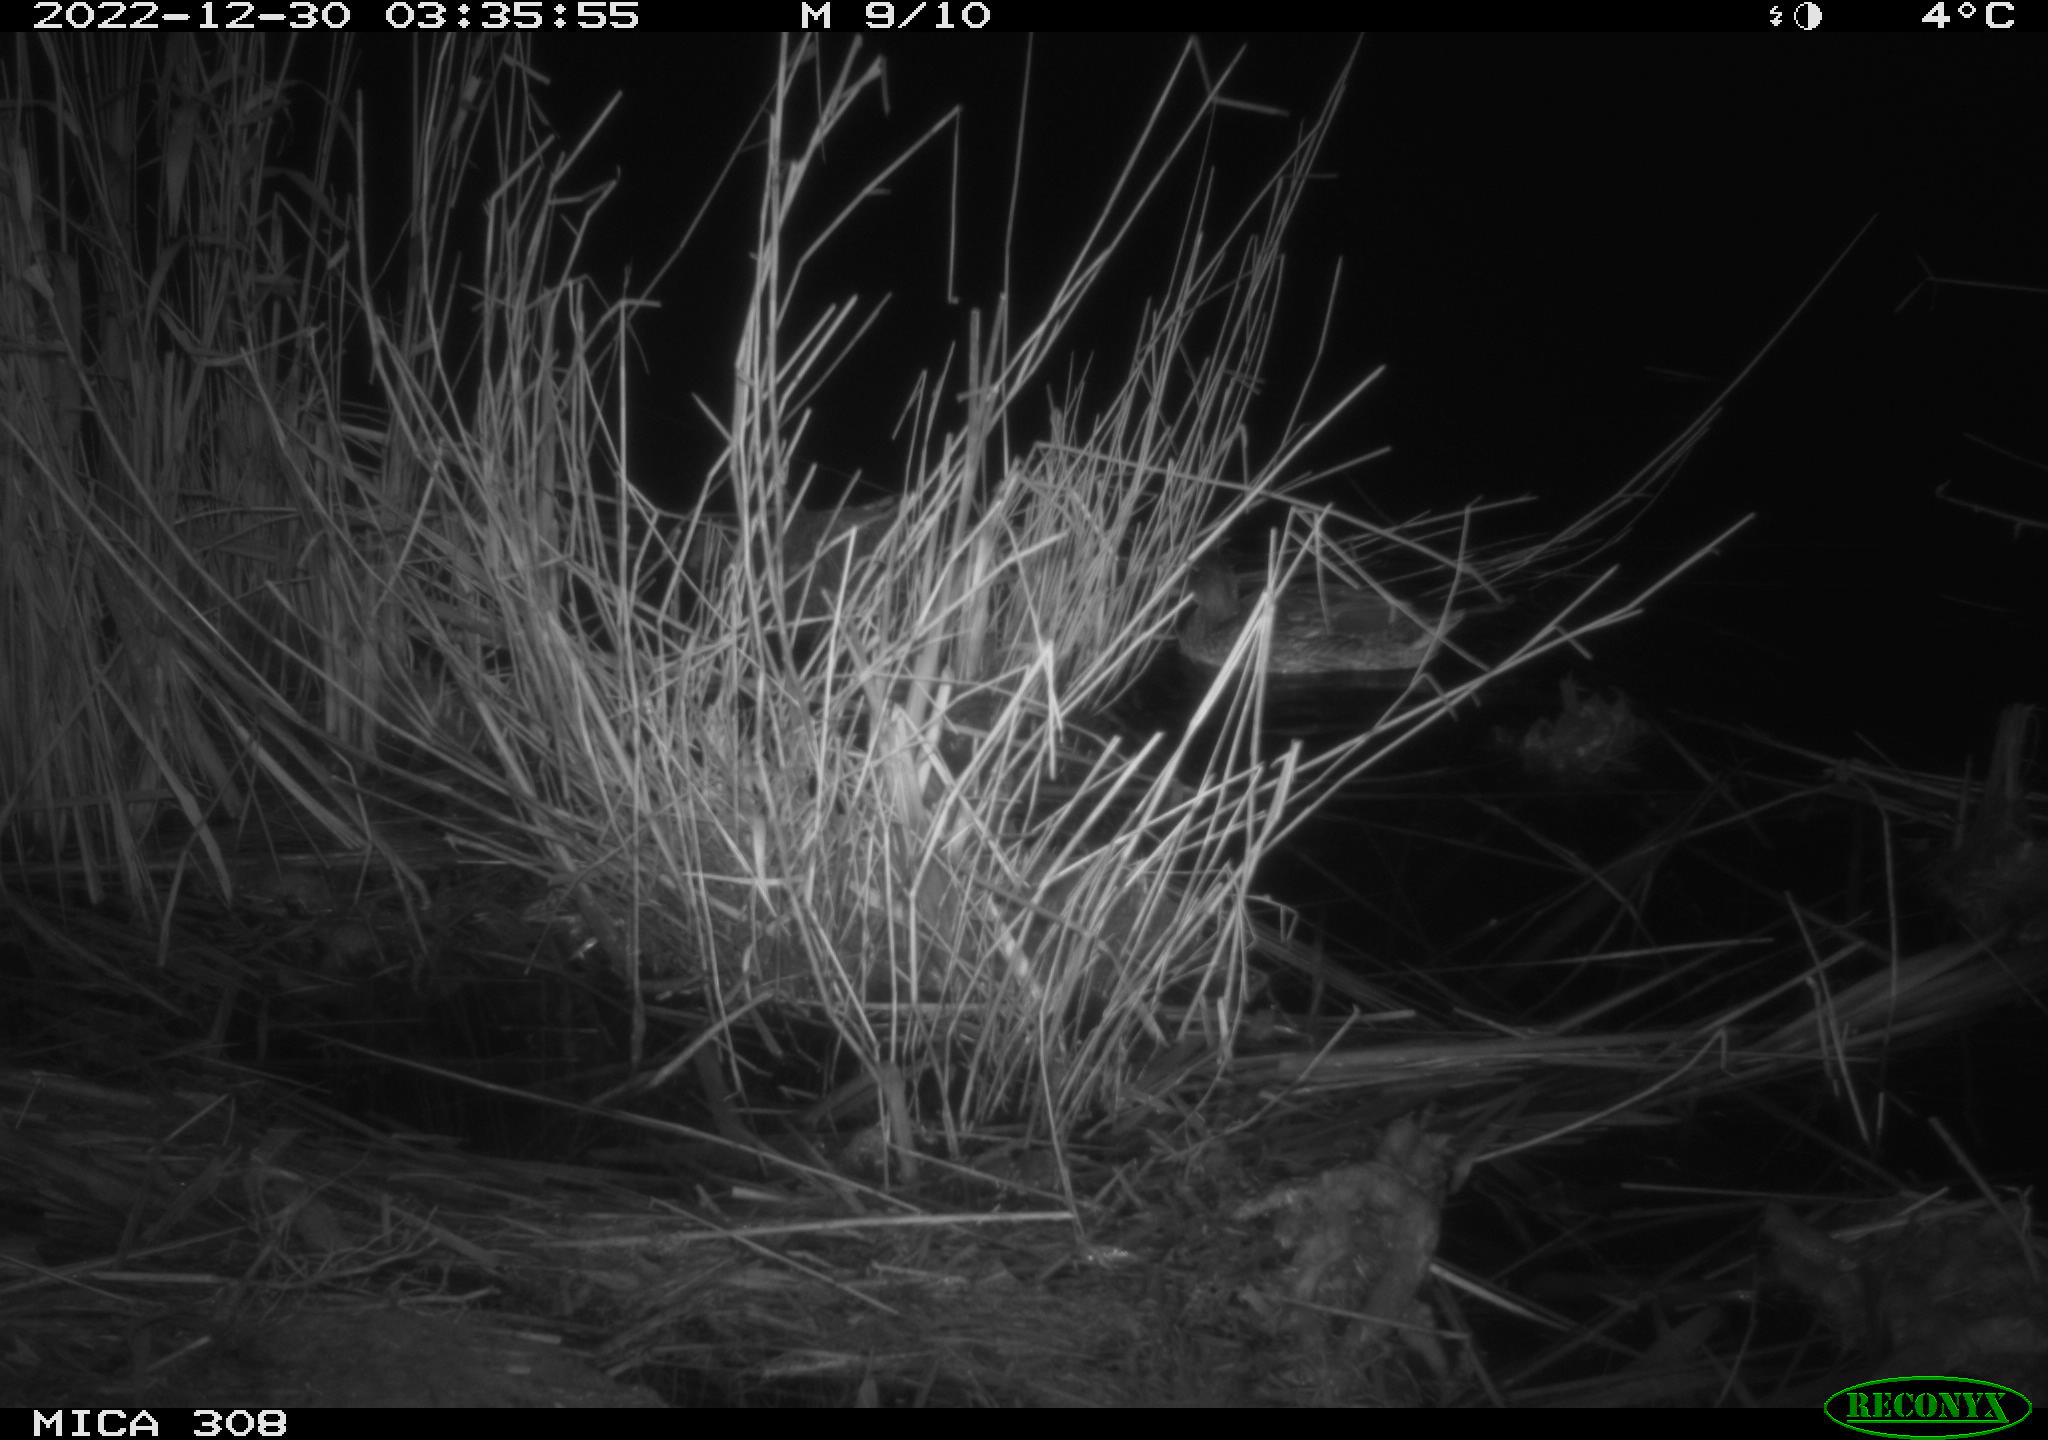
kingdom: Animalia
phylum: Chordata
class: Aves
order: Anseriformes
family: Anatidae
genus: Anas
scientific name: Anas
